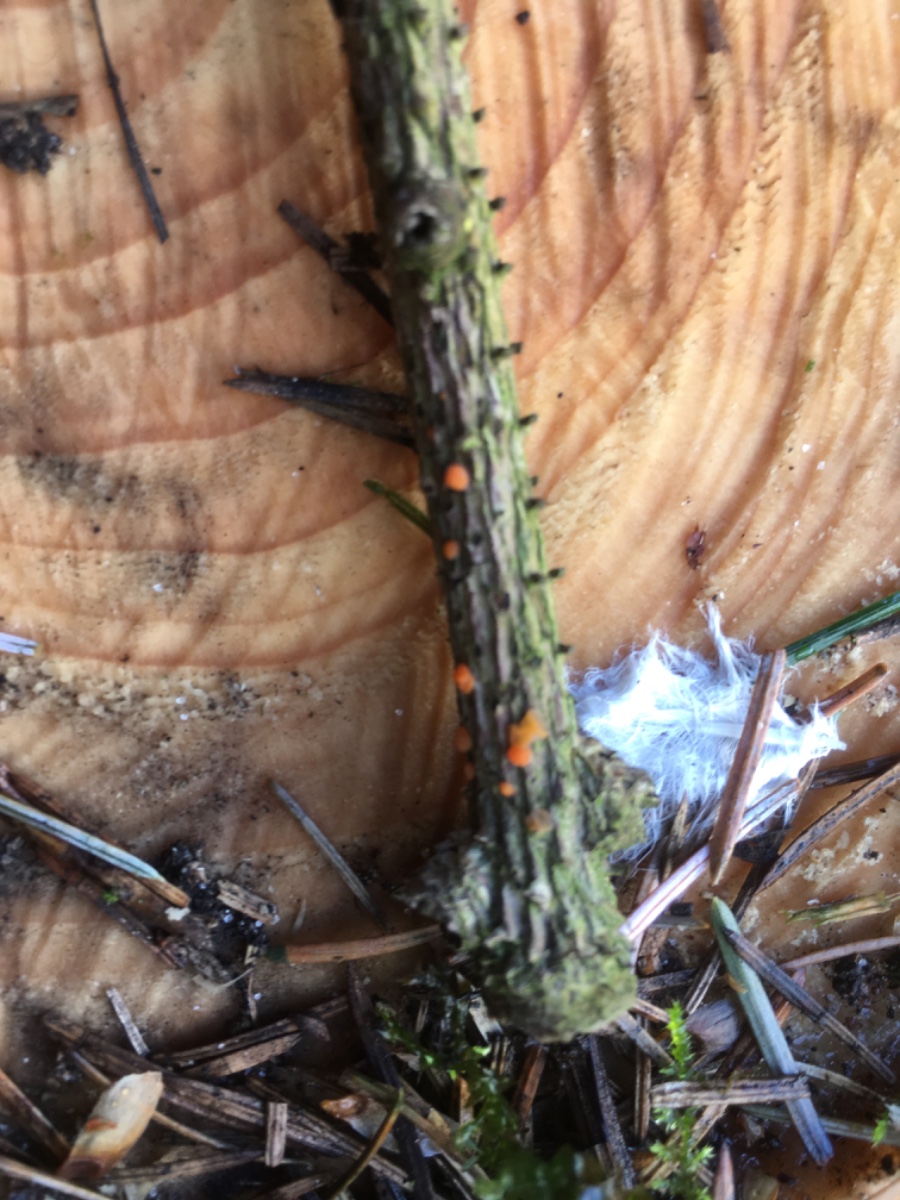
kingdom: Fungi
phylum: Basidiomycota
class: Dacrymycetes
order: Dacrymycetales
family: Dacrymycetaceae
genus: Dacrymyces
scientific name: Dacrymyces
